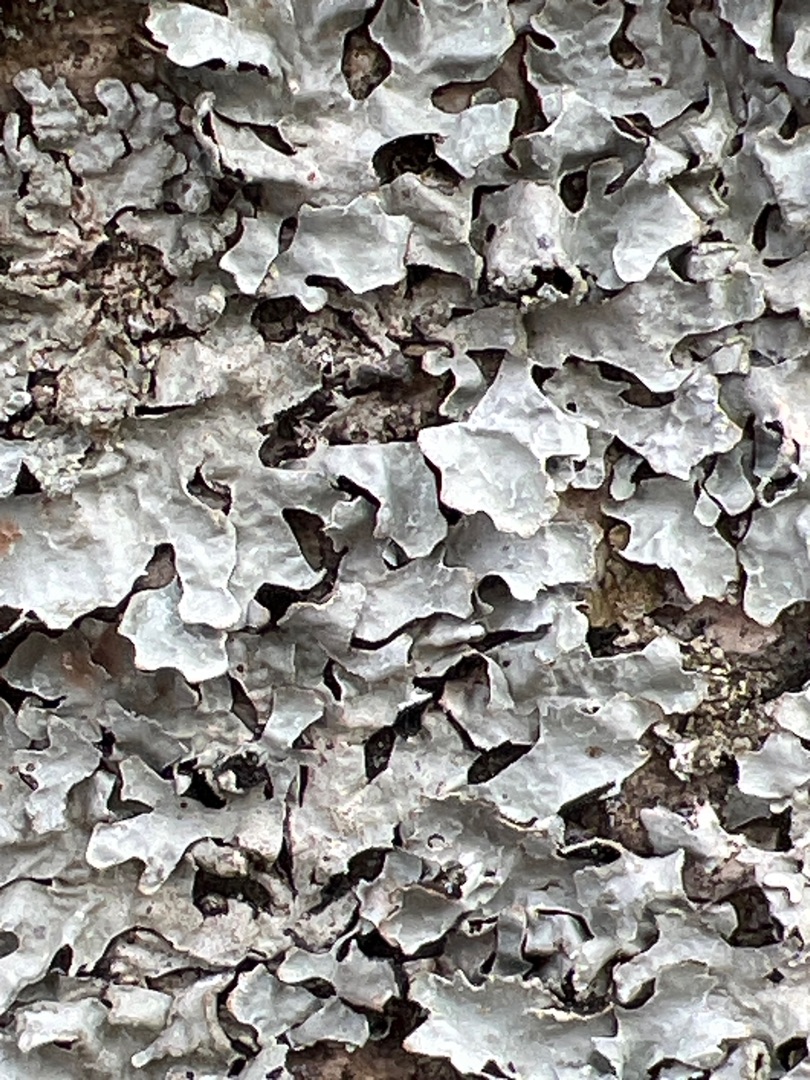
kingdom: Fungi
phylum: Ascomycota
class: Lecanoromycetes
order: Lecanorales
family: Parmeliaceae
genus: Parmelia
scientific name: Parmelia sulcata
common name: Rynket skållav
